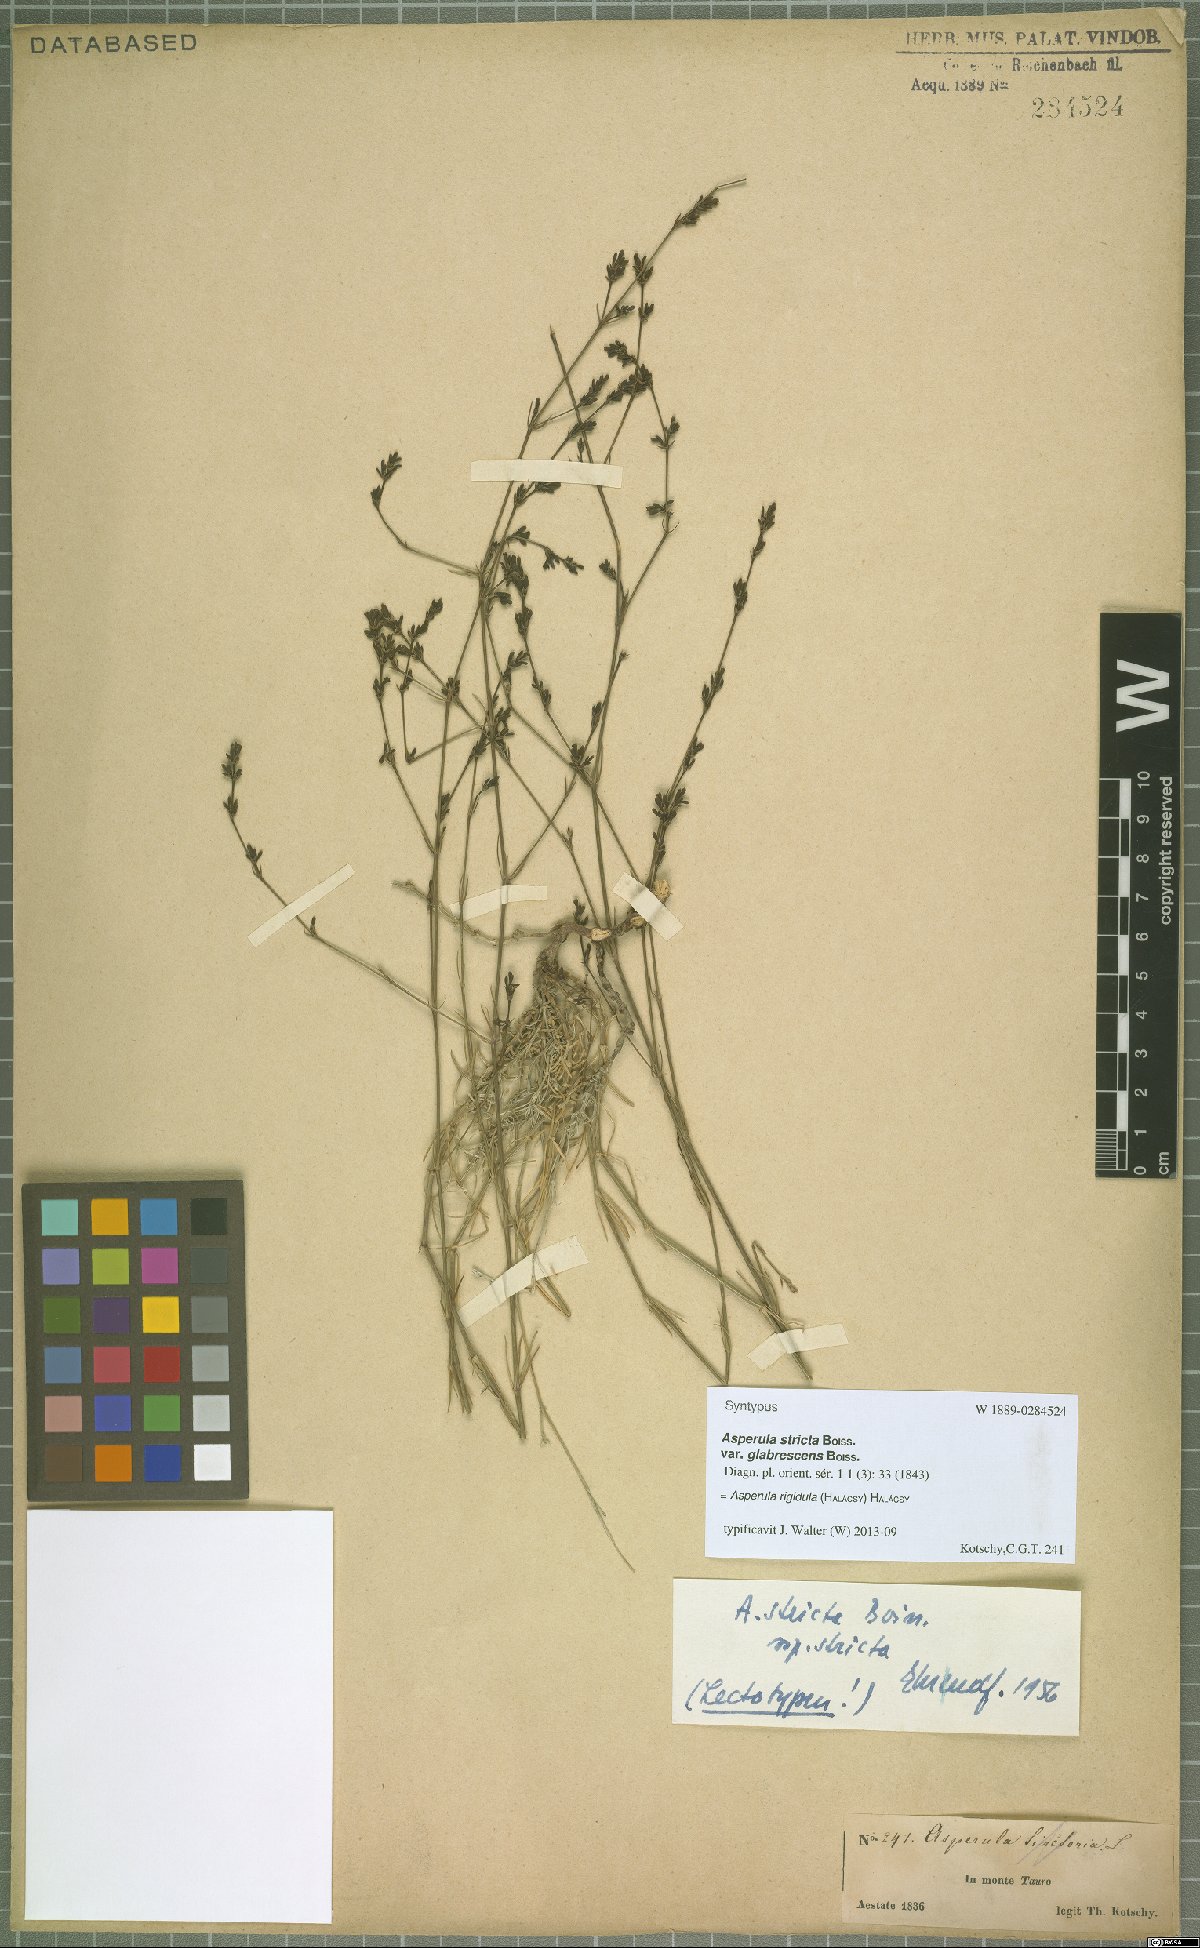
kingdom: Plantae
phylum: Tracheophyta
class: Magnoliopsida
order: Gentianales
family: Rubiaceae
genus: Cynanchica
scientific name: Cynanchica rigidula
